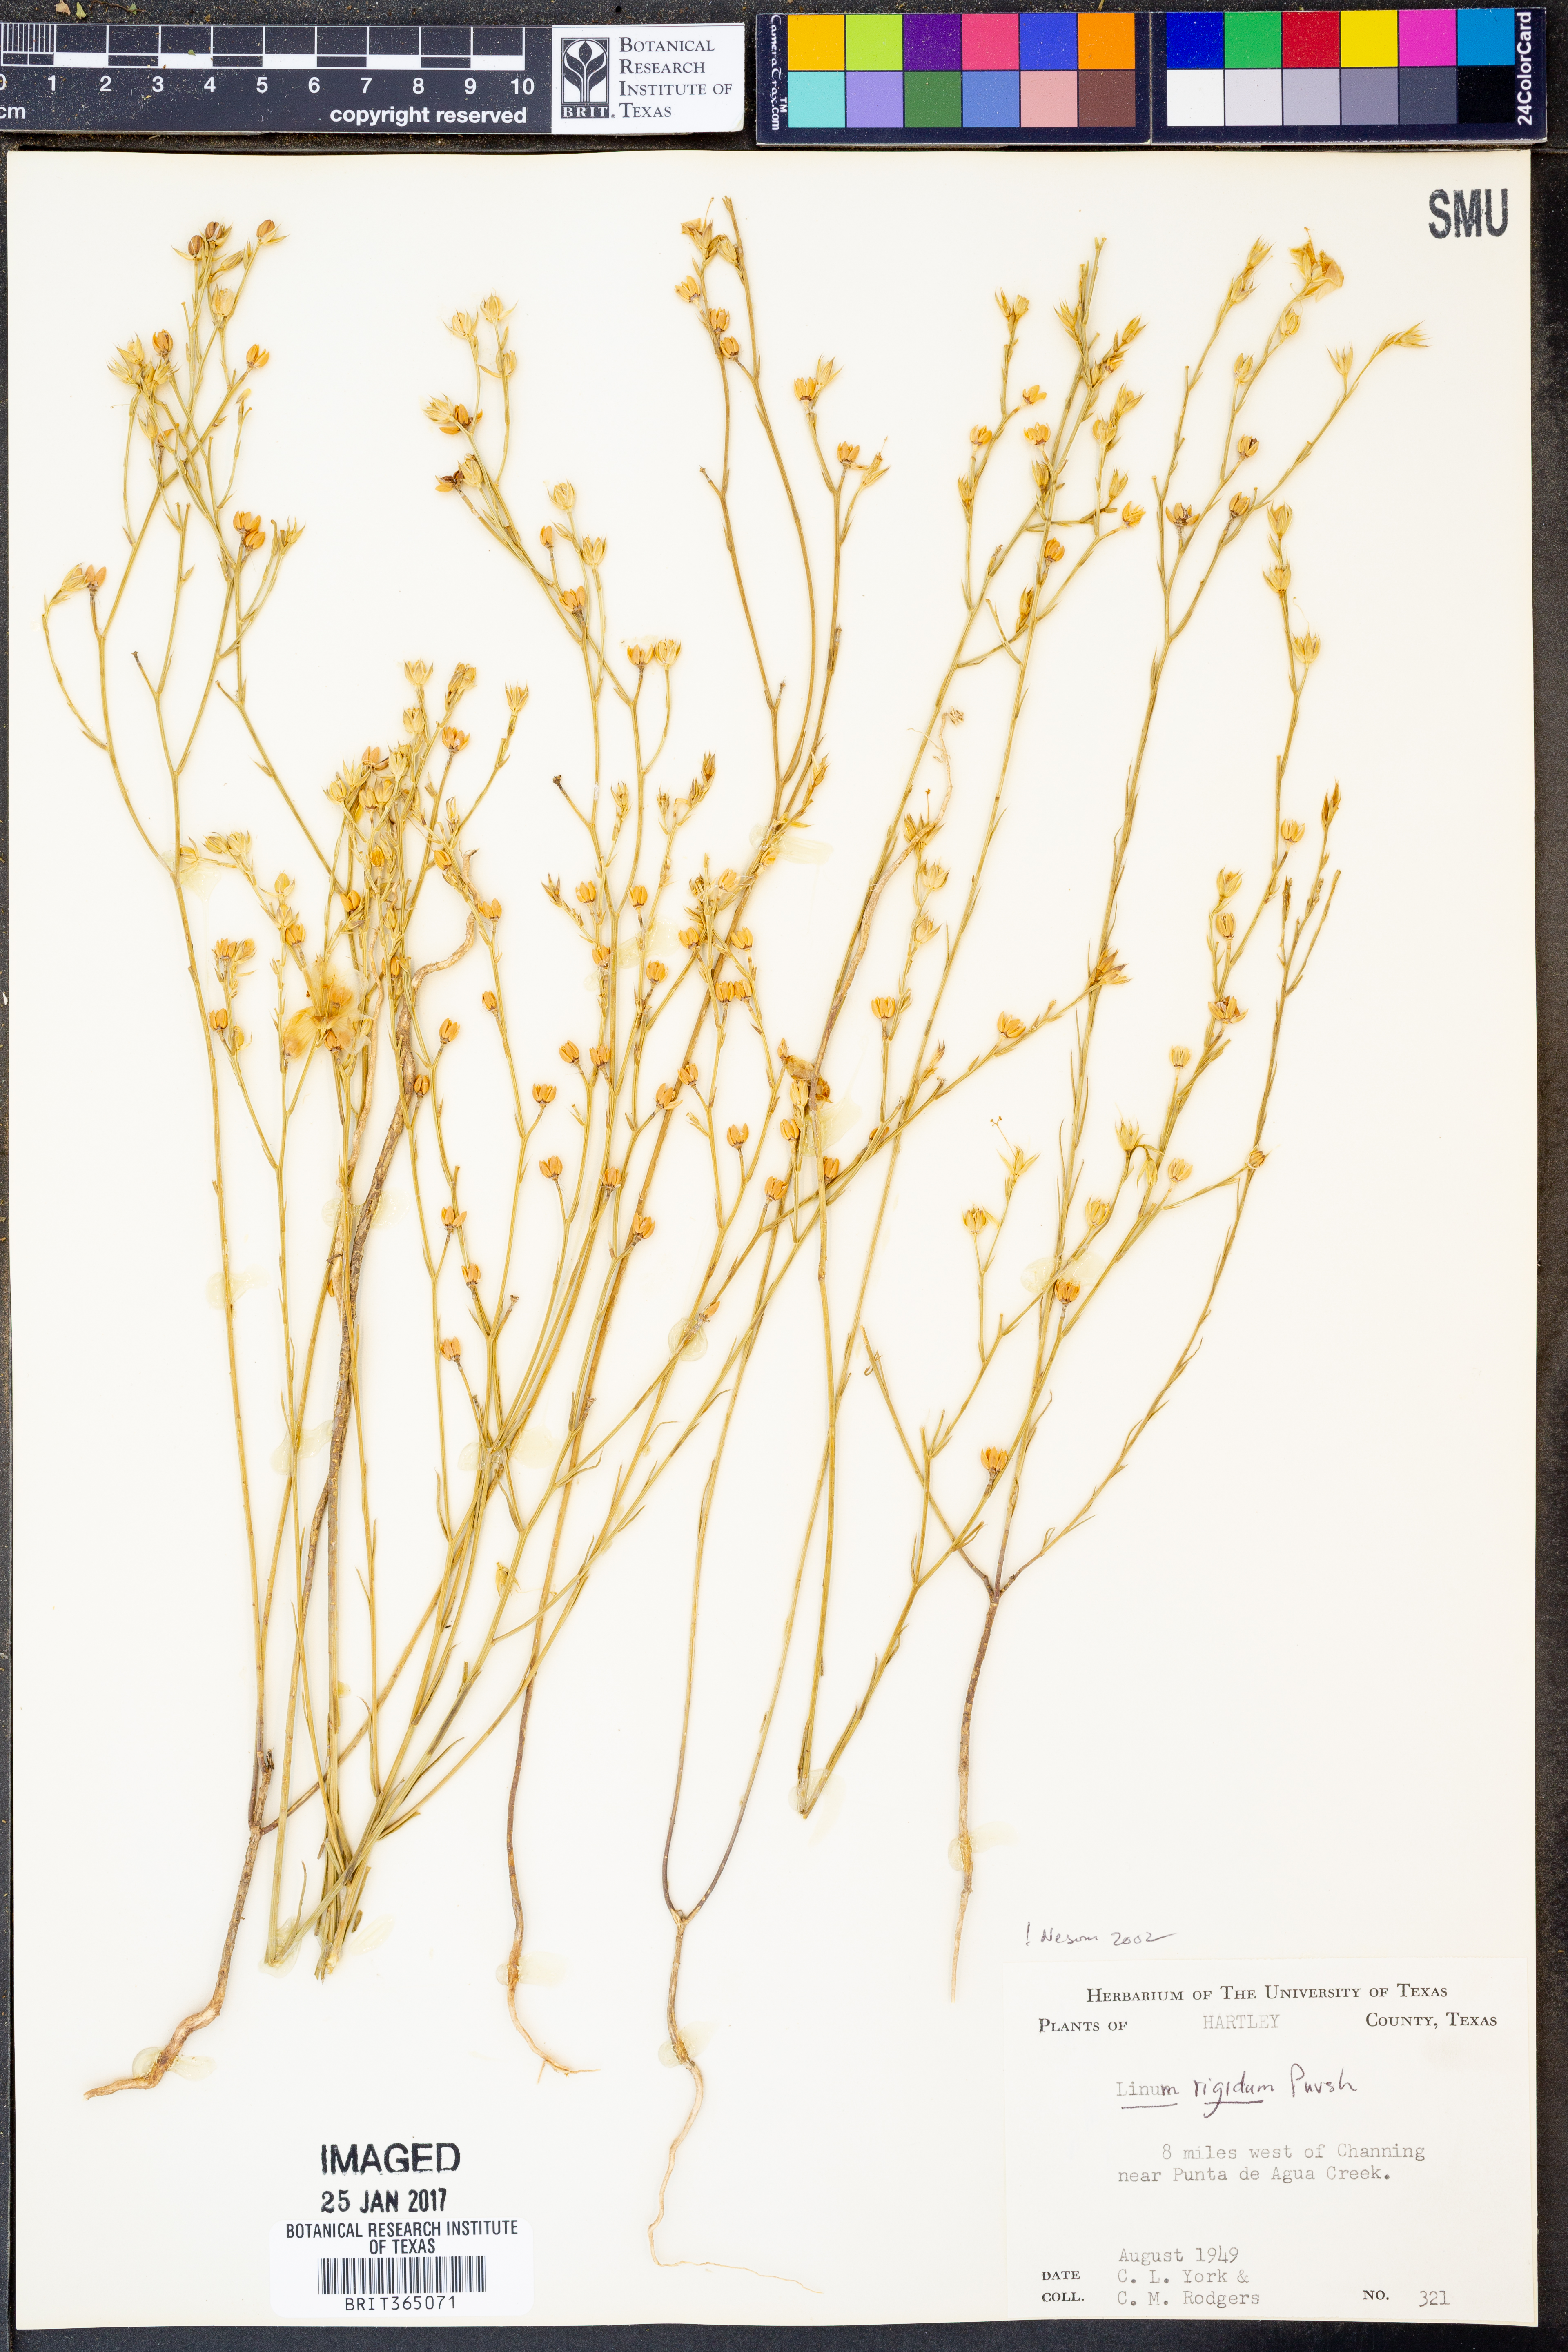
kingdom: Plantae
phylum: Tracheophyta
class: Magnoliopsida
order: Malpighiales
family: Linaceae
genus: Linum
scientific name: Linum rigidum
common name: Stiff-stem flax
